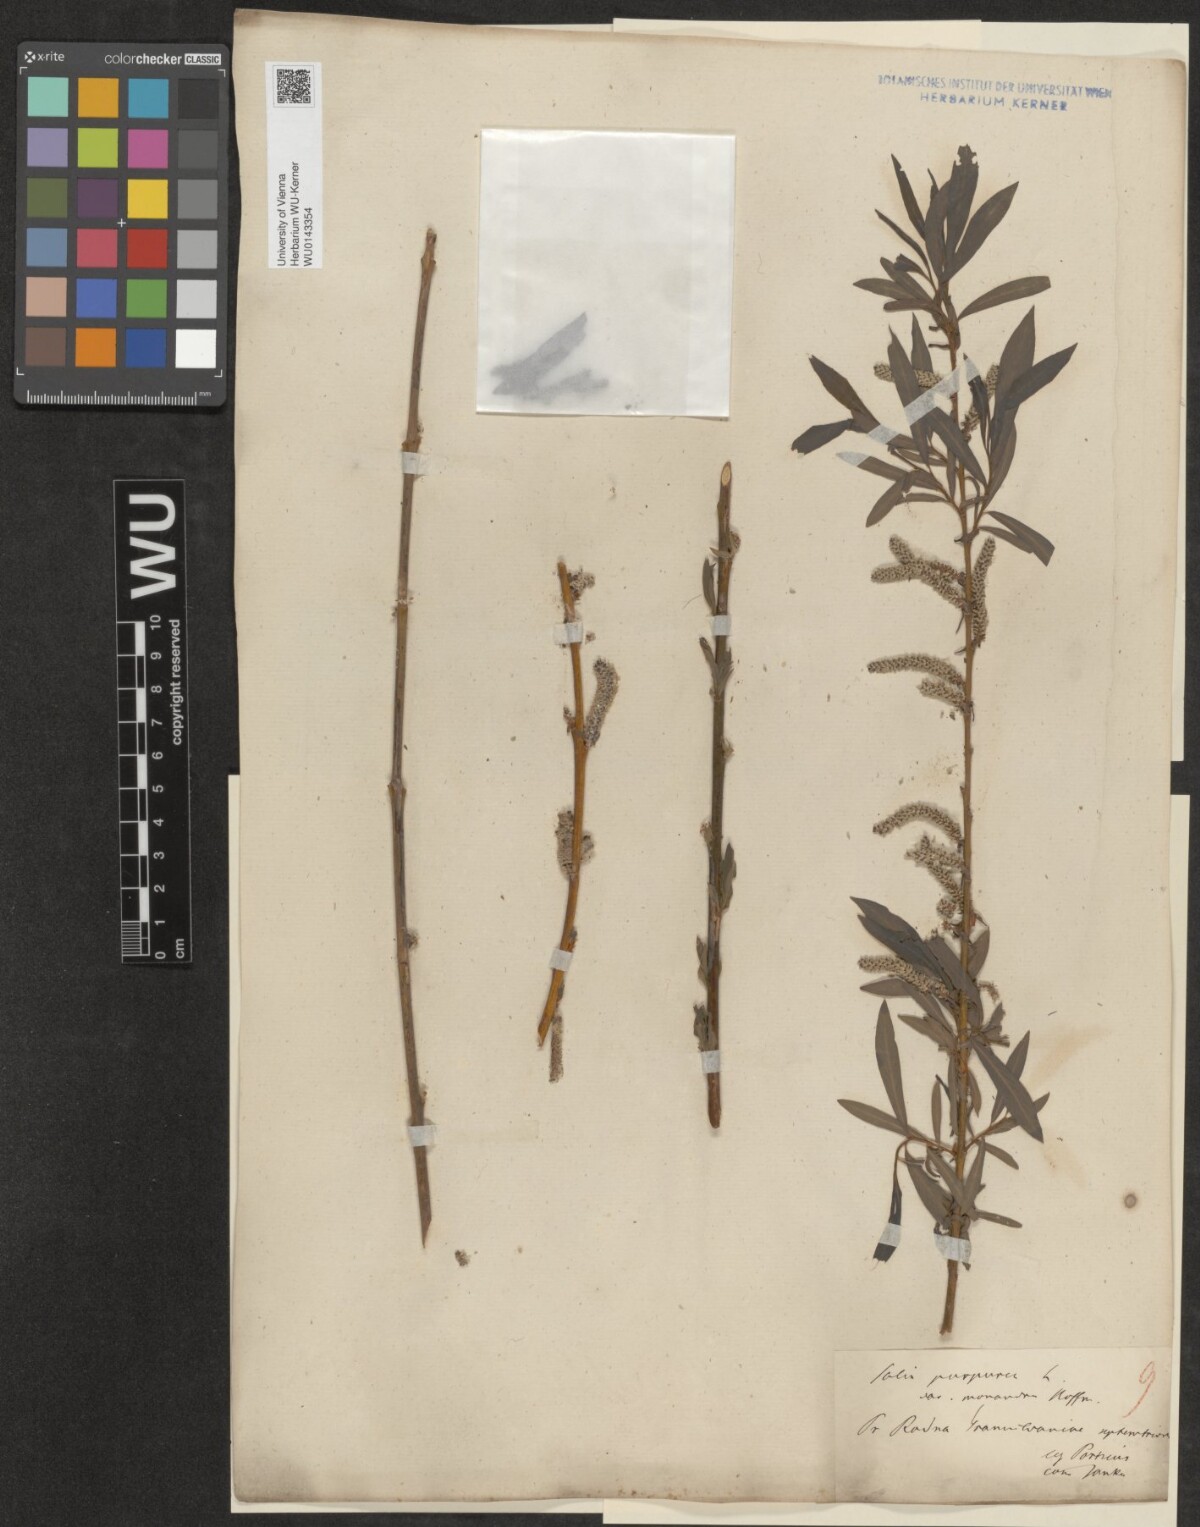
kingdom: Plantae
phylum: Tracheophyta
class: Magnoliopsida
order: Malpighiales
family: Salicaceae
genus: Salix
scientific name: Salix purpurea
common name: Purple willow
